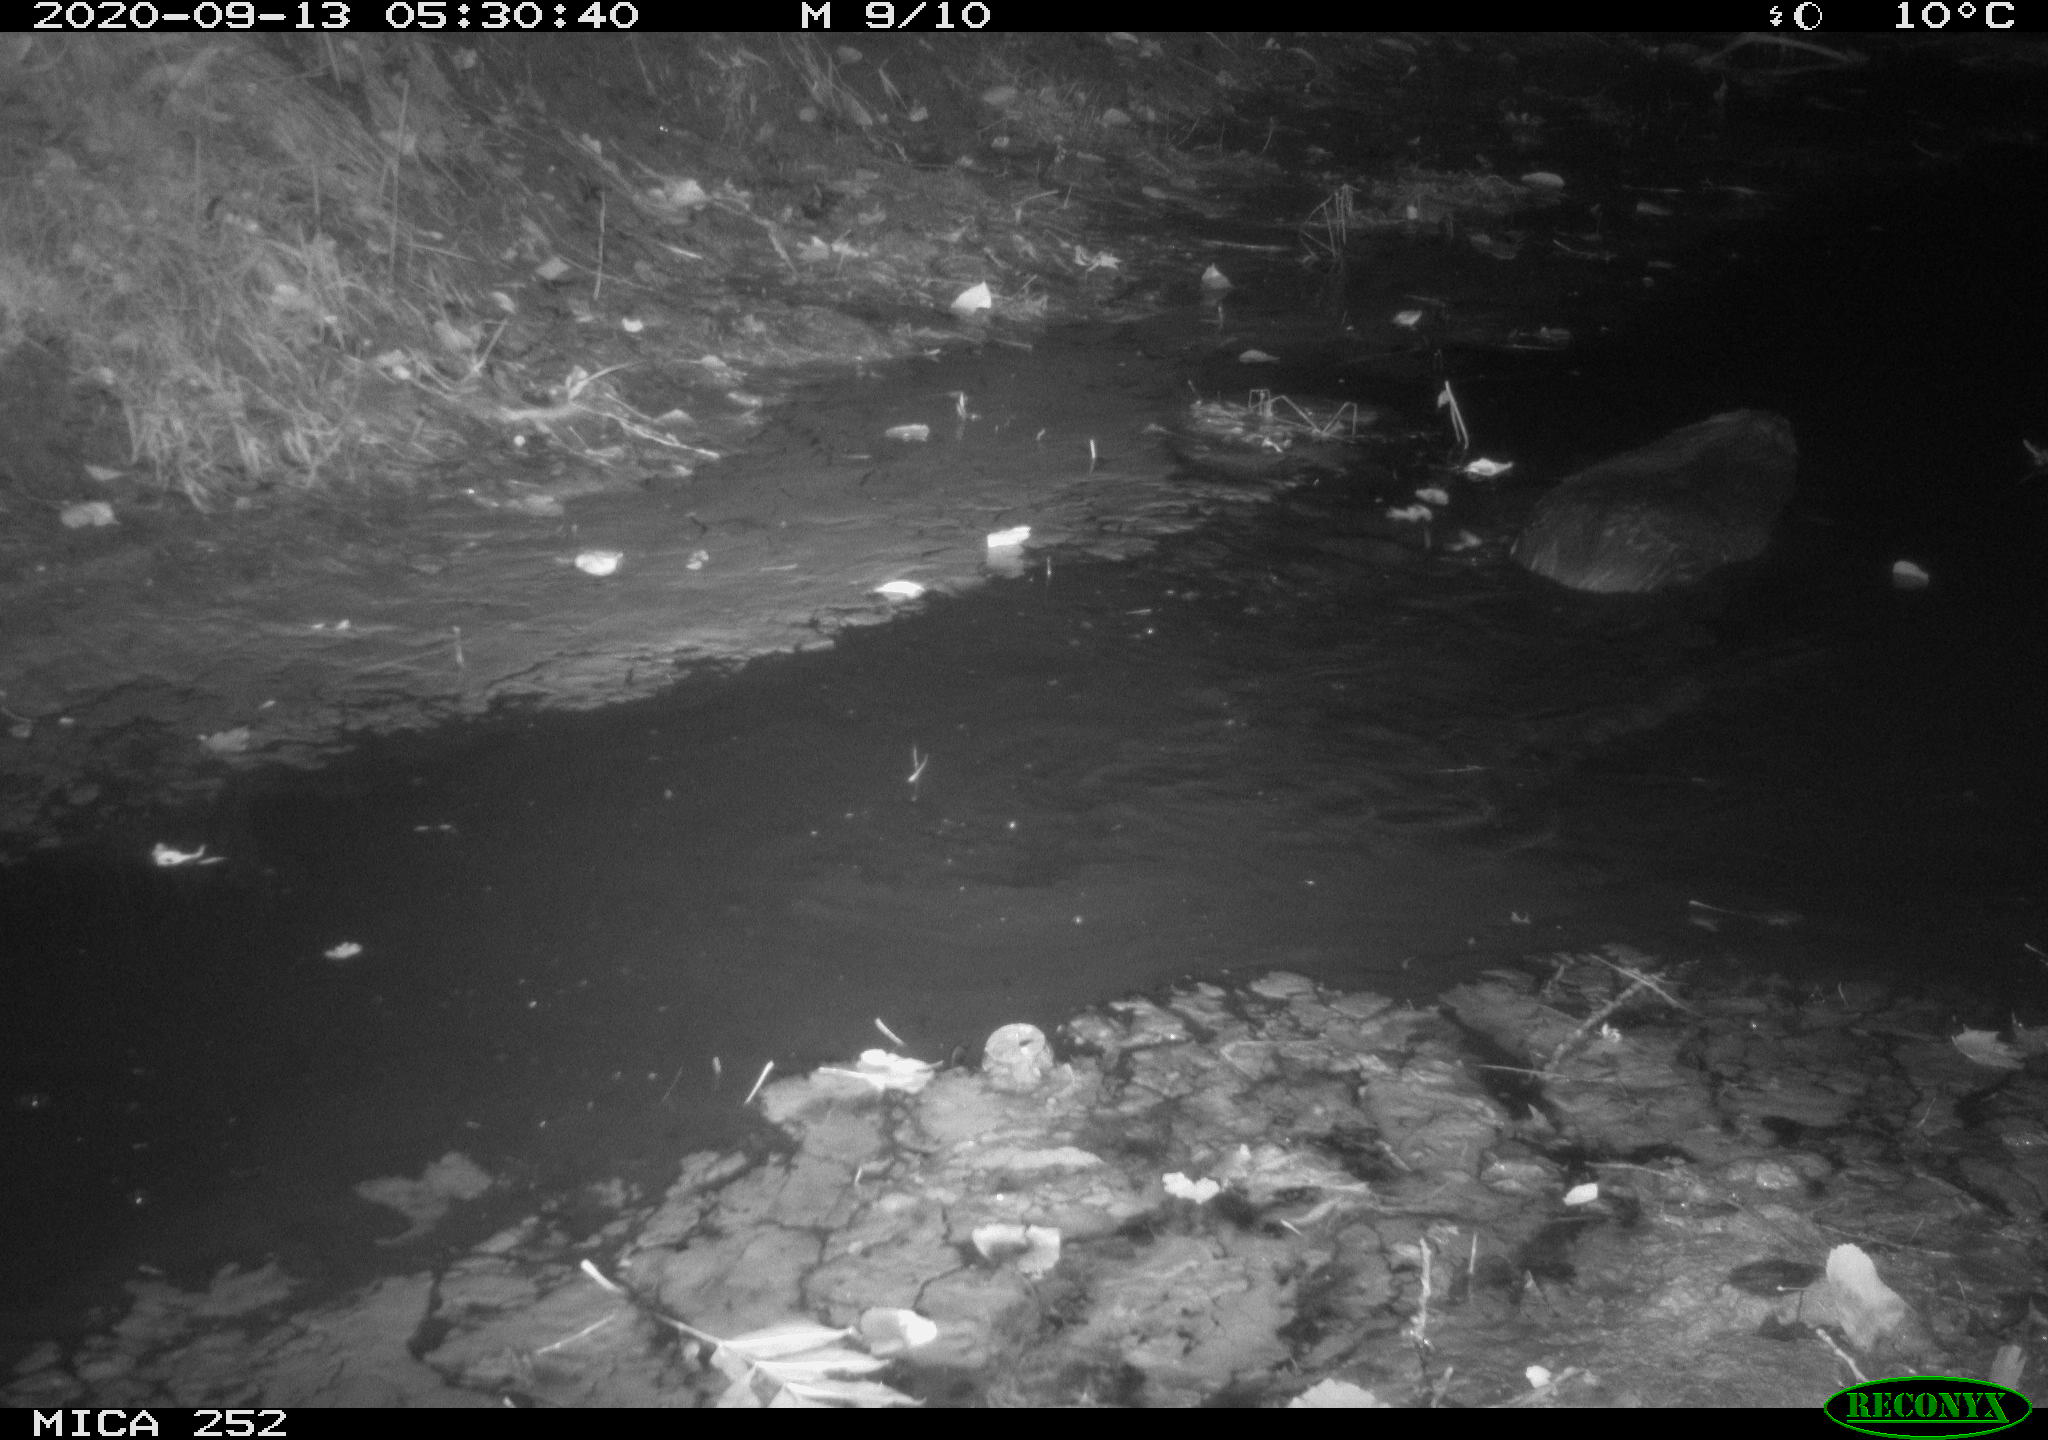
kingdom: Animalia
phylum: Chordata
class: Mammalia
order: Rodentia
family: Castoridae
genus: Castor
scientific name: Castor fiber
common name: Eurasian beaver
